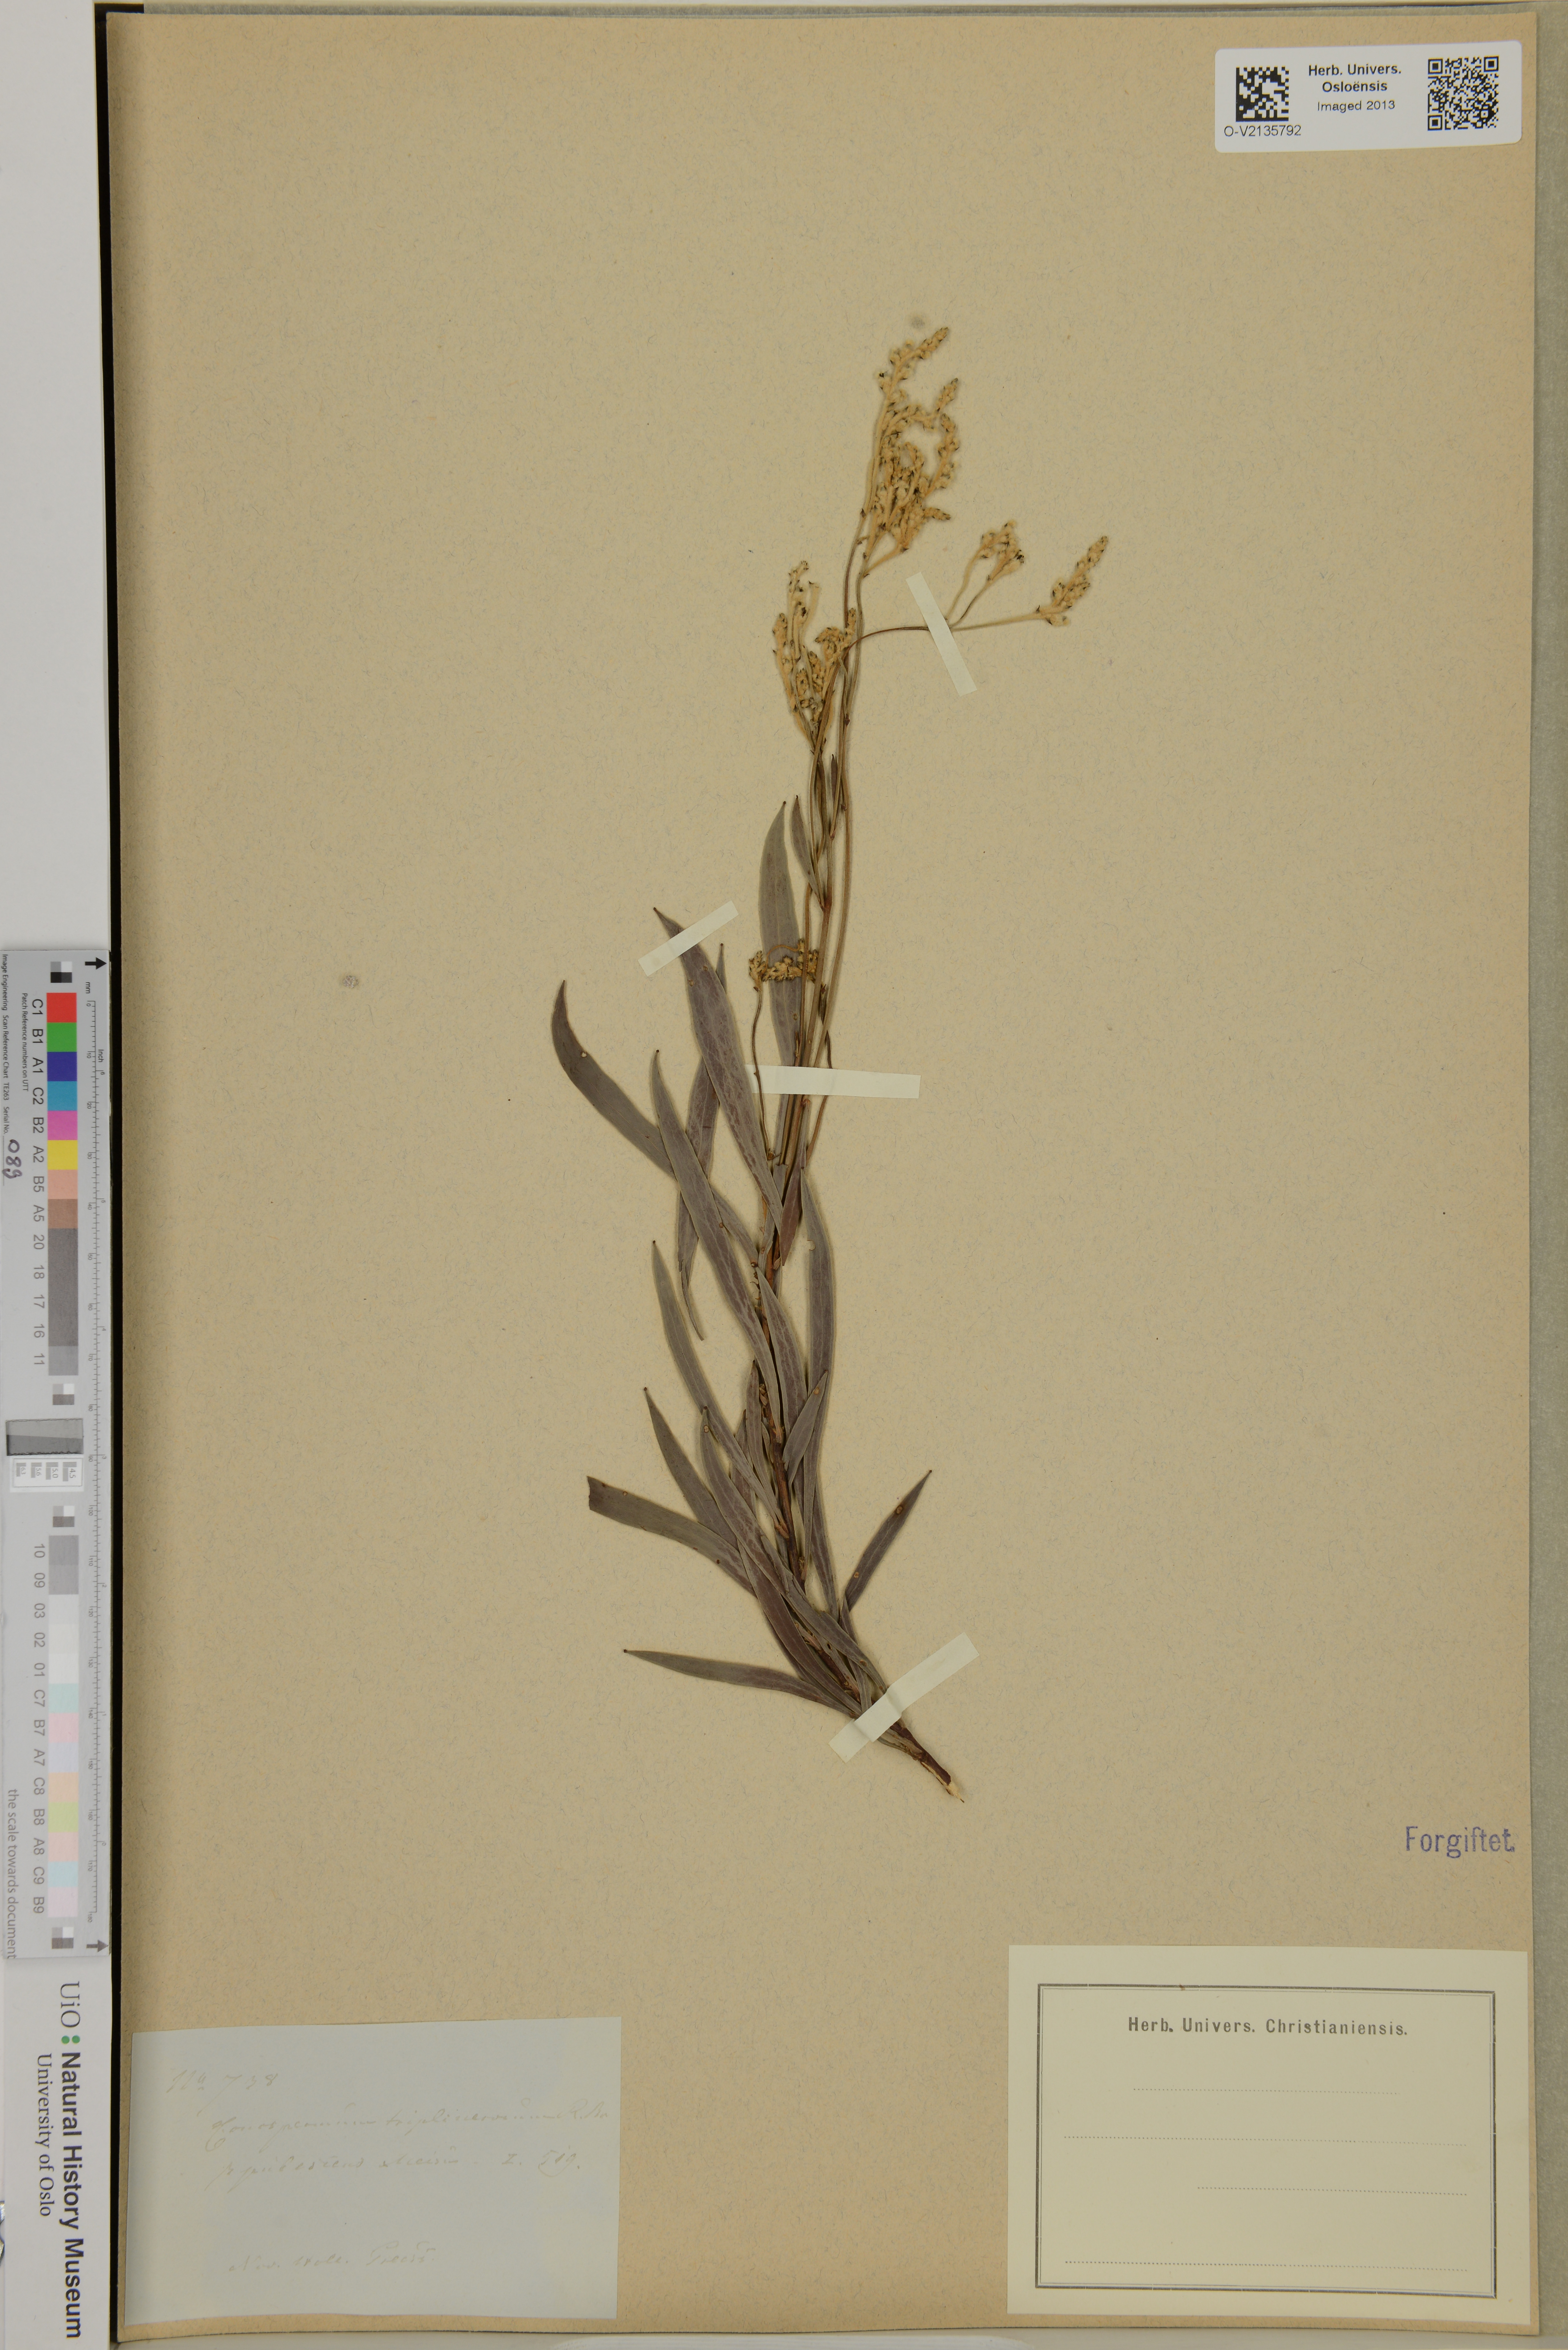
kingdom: Plantae
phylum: Tracheophyta
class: Magnoliopsida
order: Proteales
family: Proteaceae
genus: Conospermum
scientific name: Conospermum triplinervium
